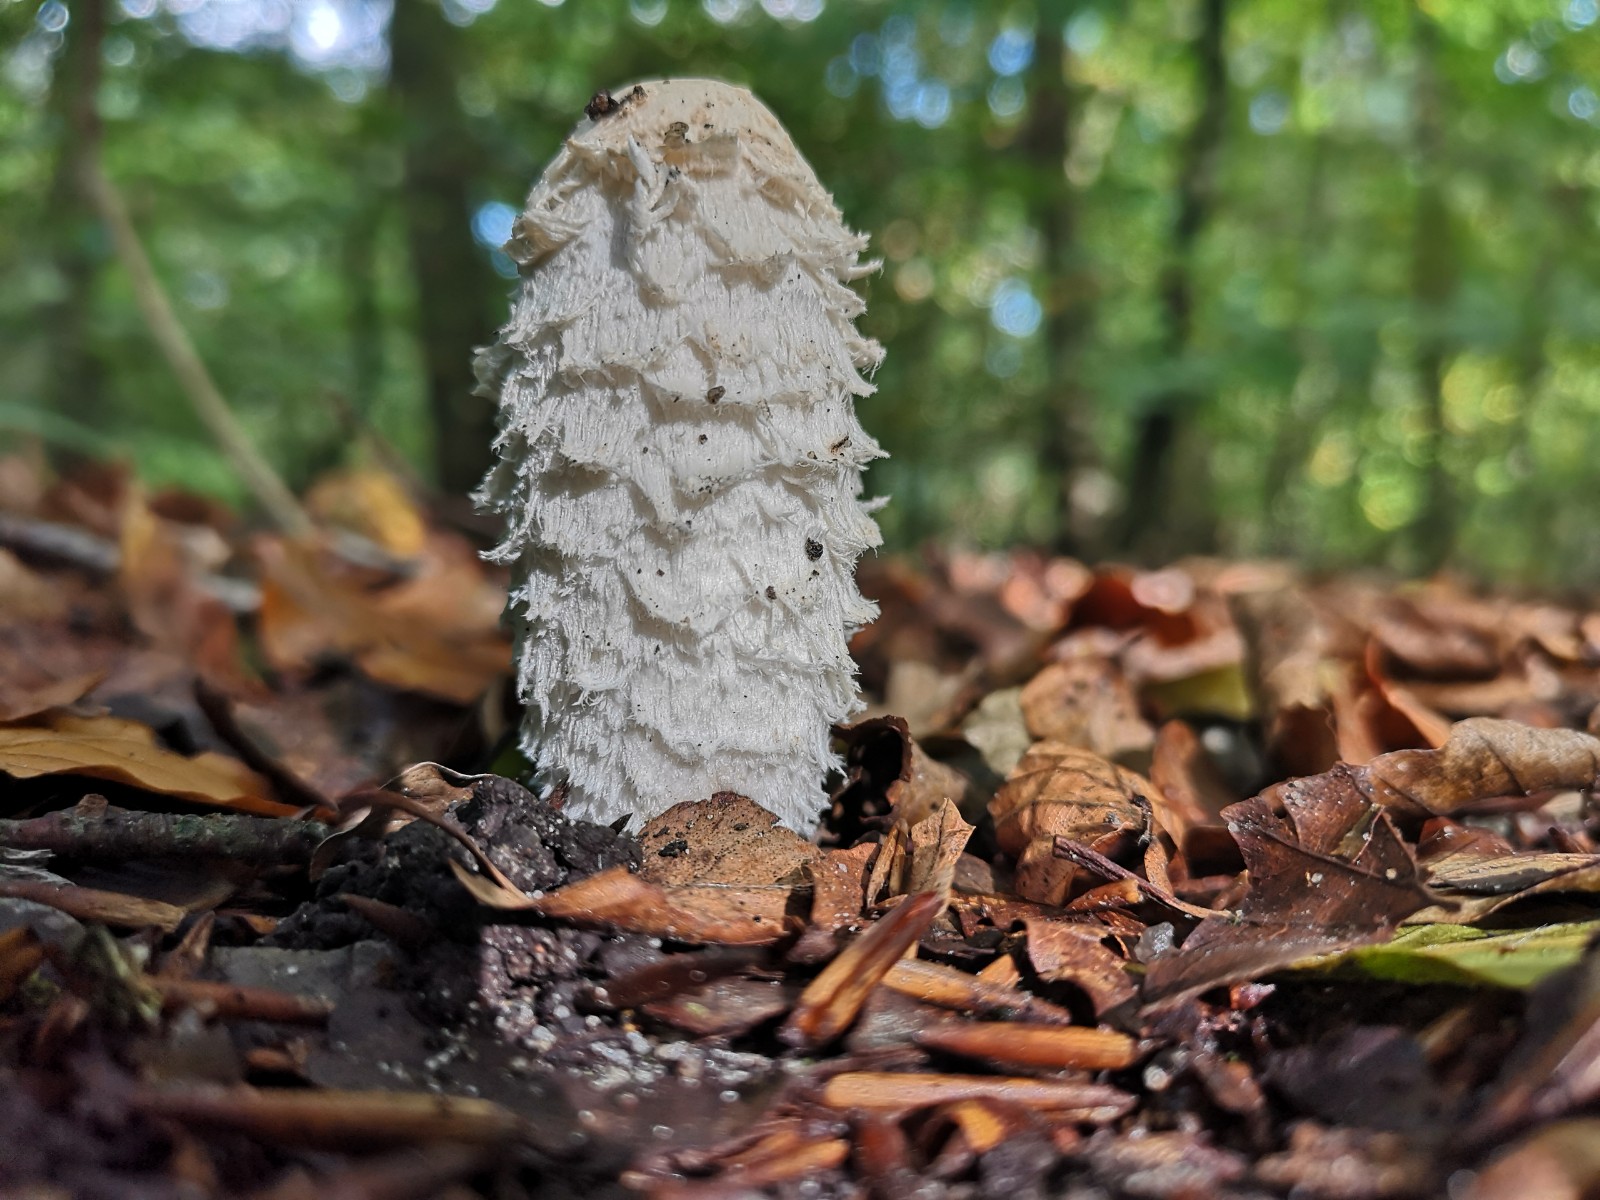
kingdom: Fungi
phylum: Basidiomycota
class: Agaricomycetes
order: Agaricales
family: Agaricaceae
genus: Coprinus
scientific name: Coprinus comatus
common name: stor parykhat
